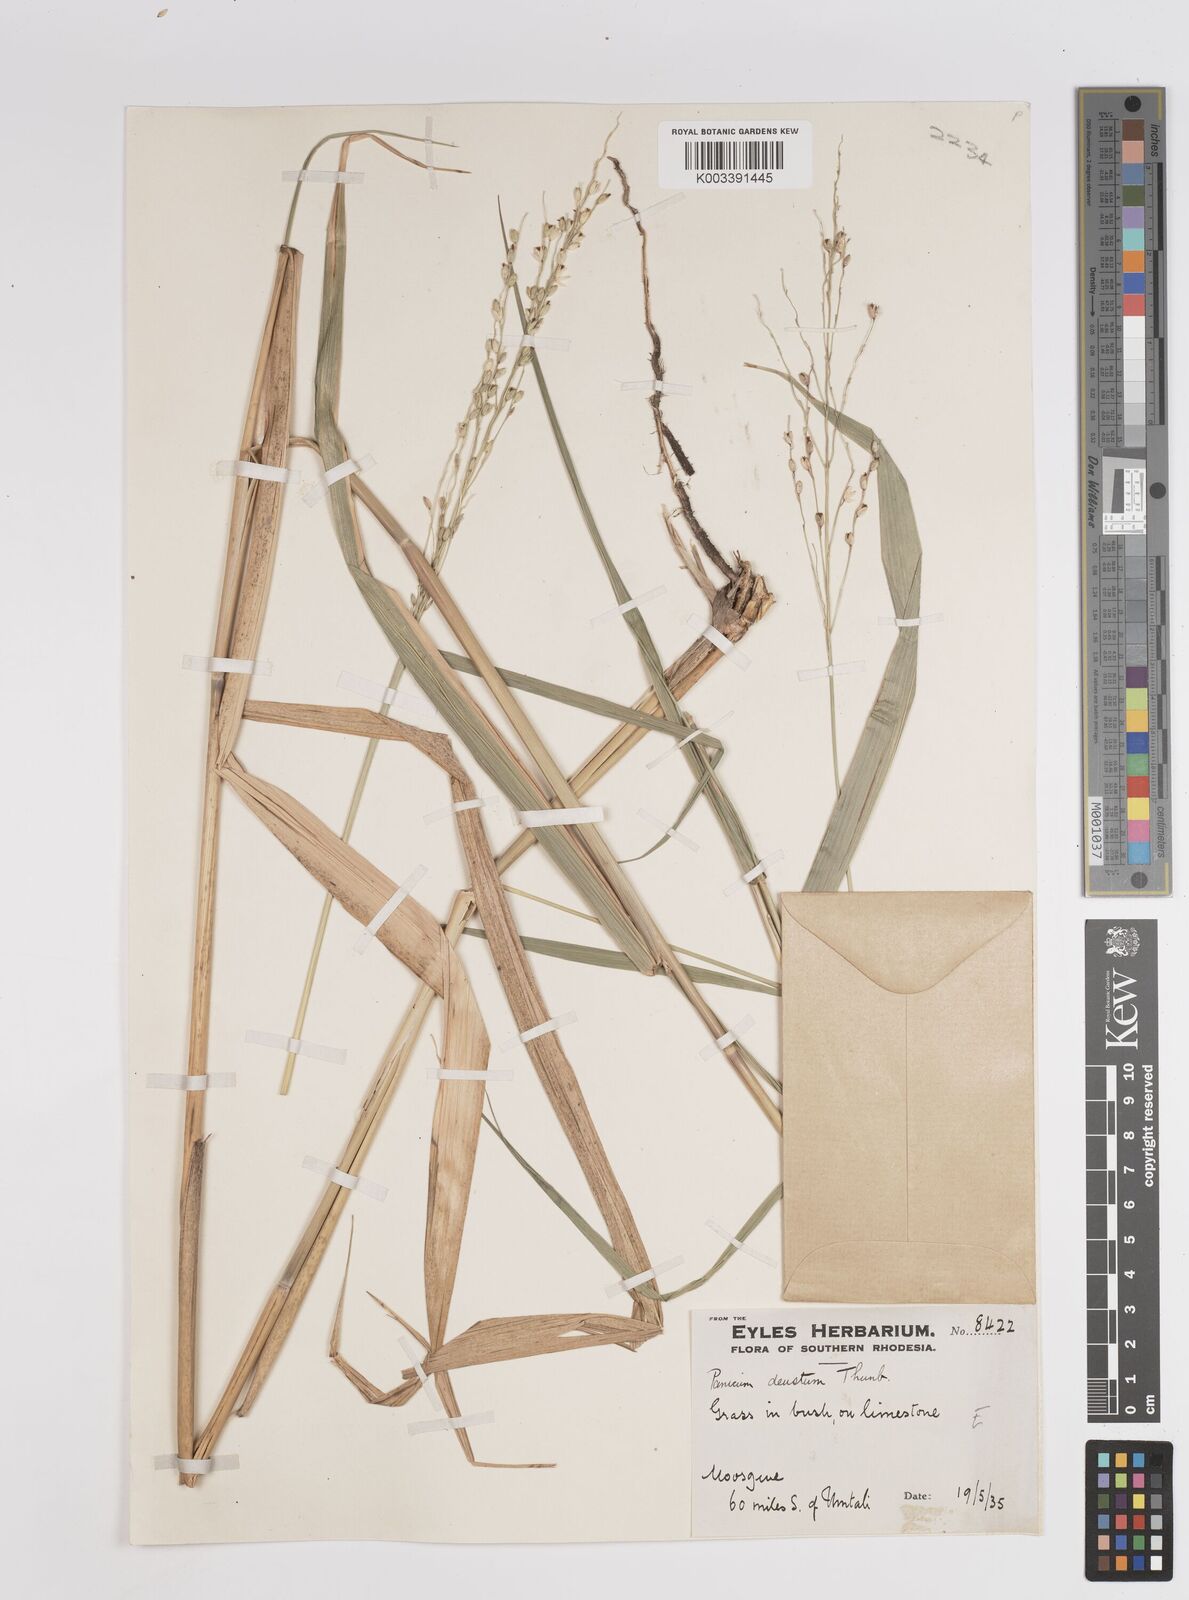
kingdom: Plantae
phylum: Tracheophyta
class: Liliopsida
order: Poales
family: Poaceae
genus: Panicum
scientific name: Panicum deustum
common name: Reed panicum
